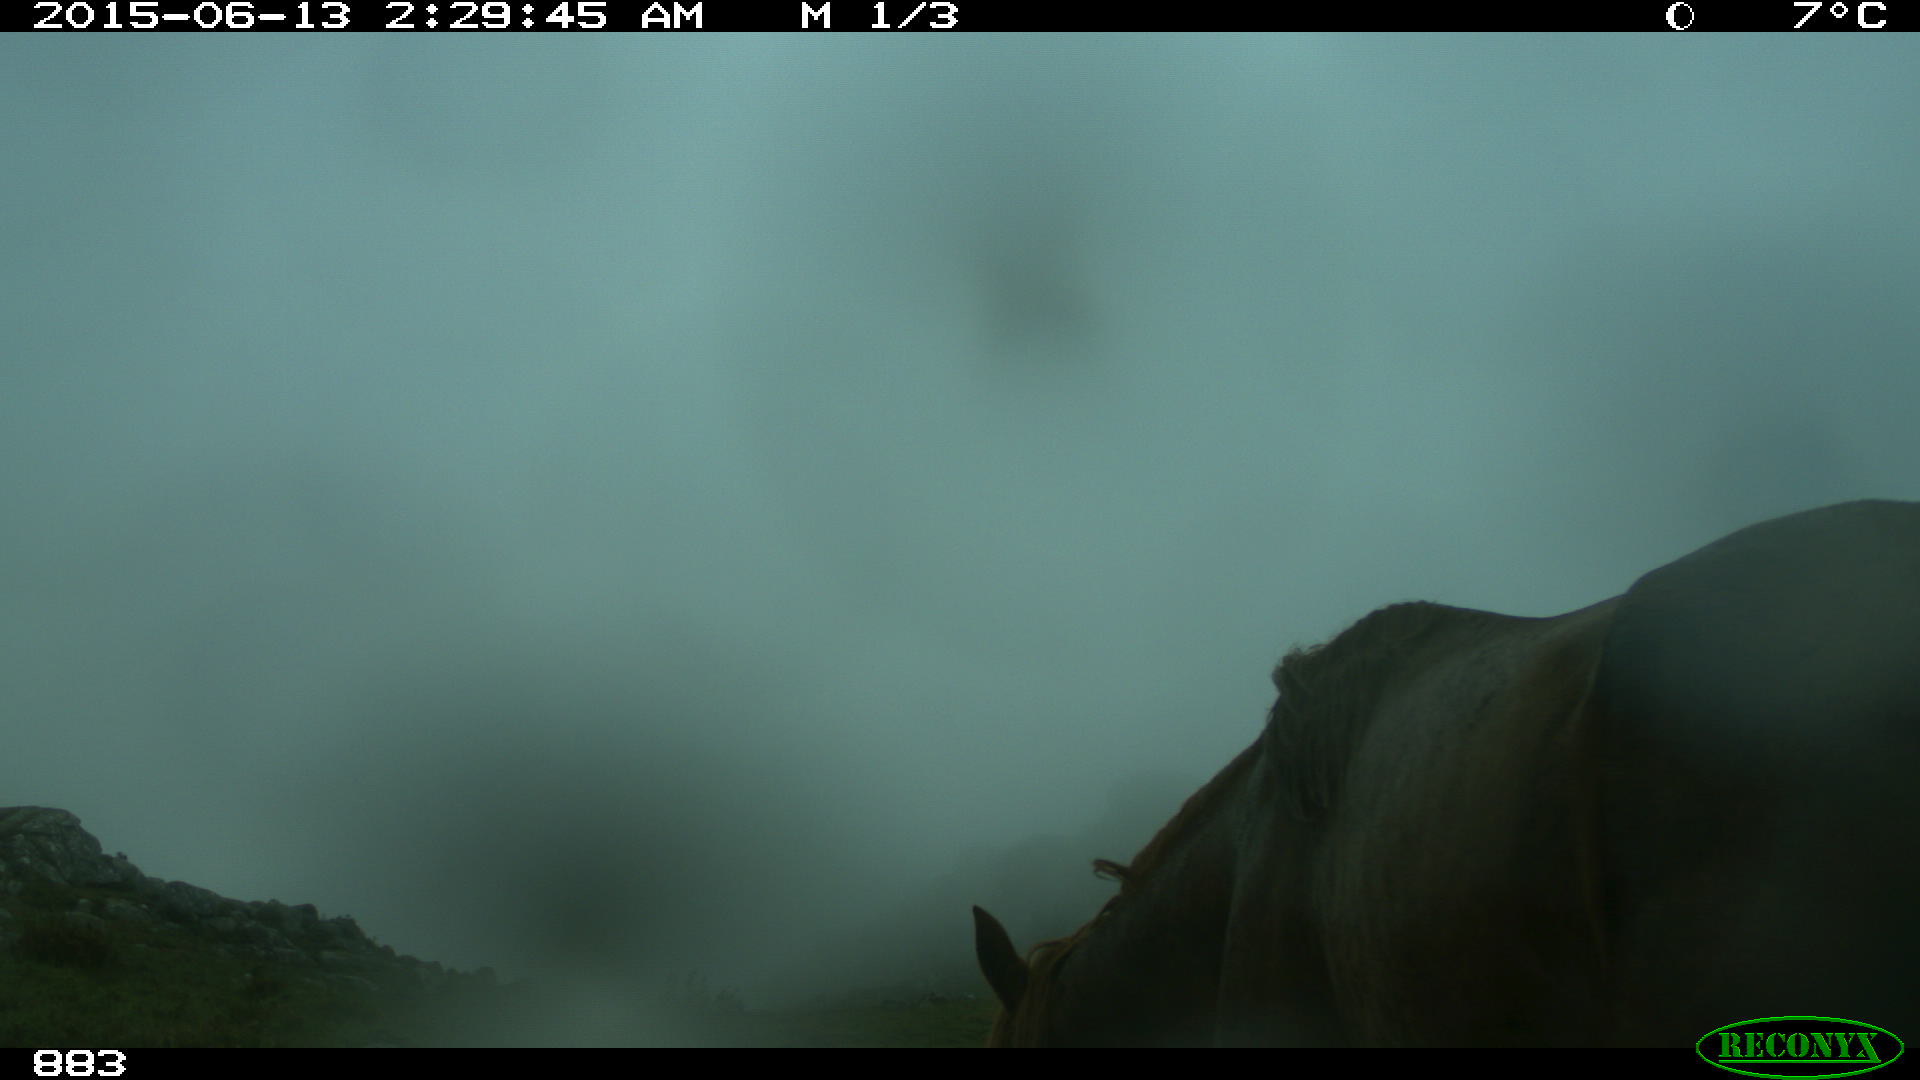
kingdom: Animalia
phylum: Chordata
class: Mammalia
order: Perissodactyla
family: Equidae
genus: Equus
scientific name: Equus caballus
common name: Horse
